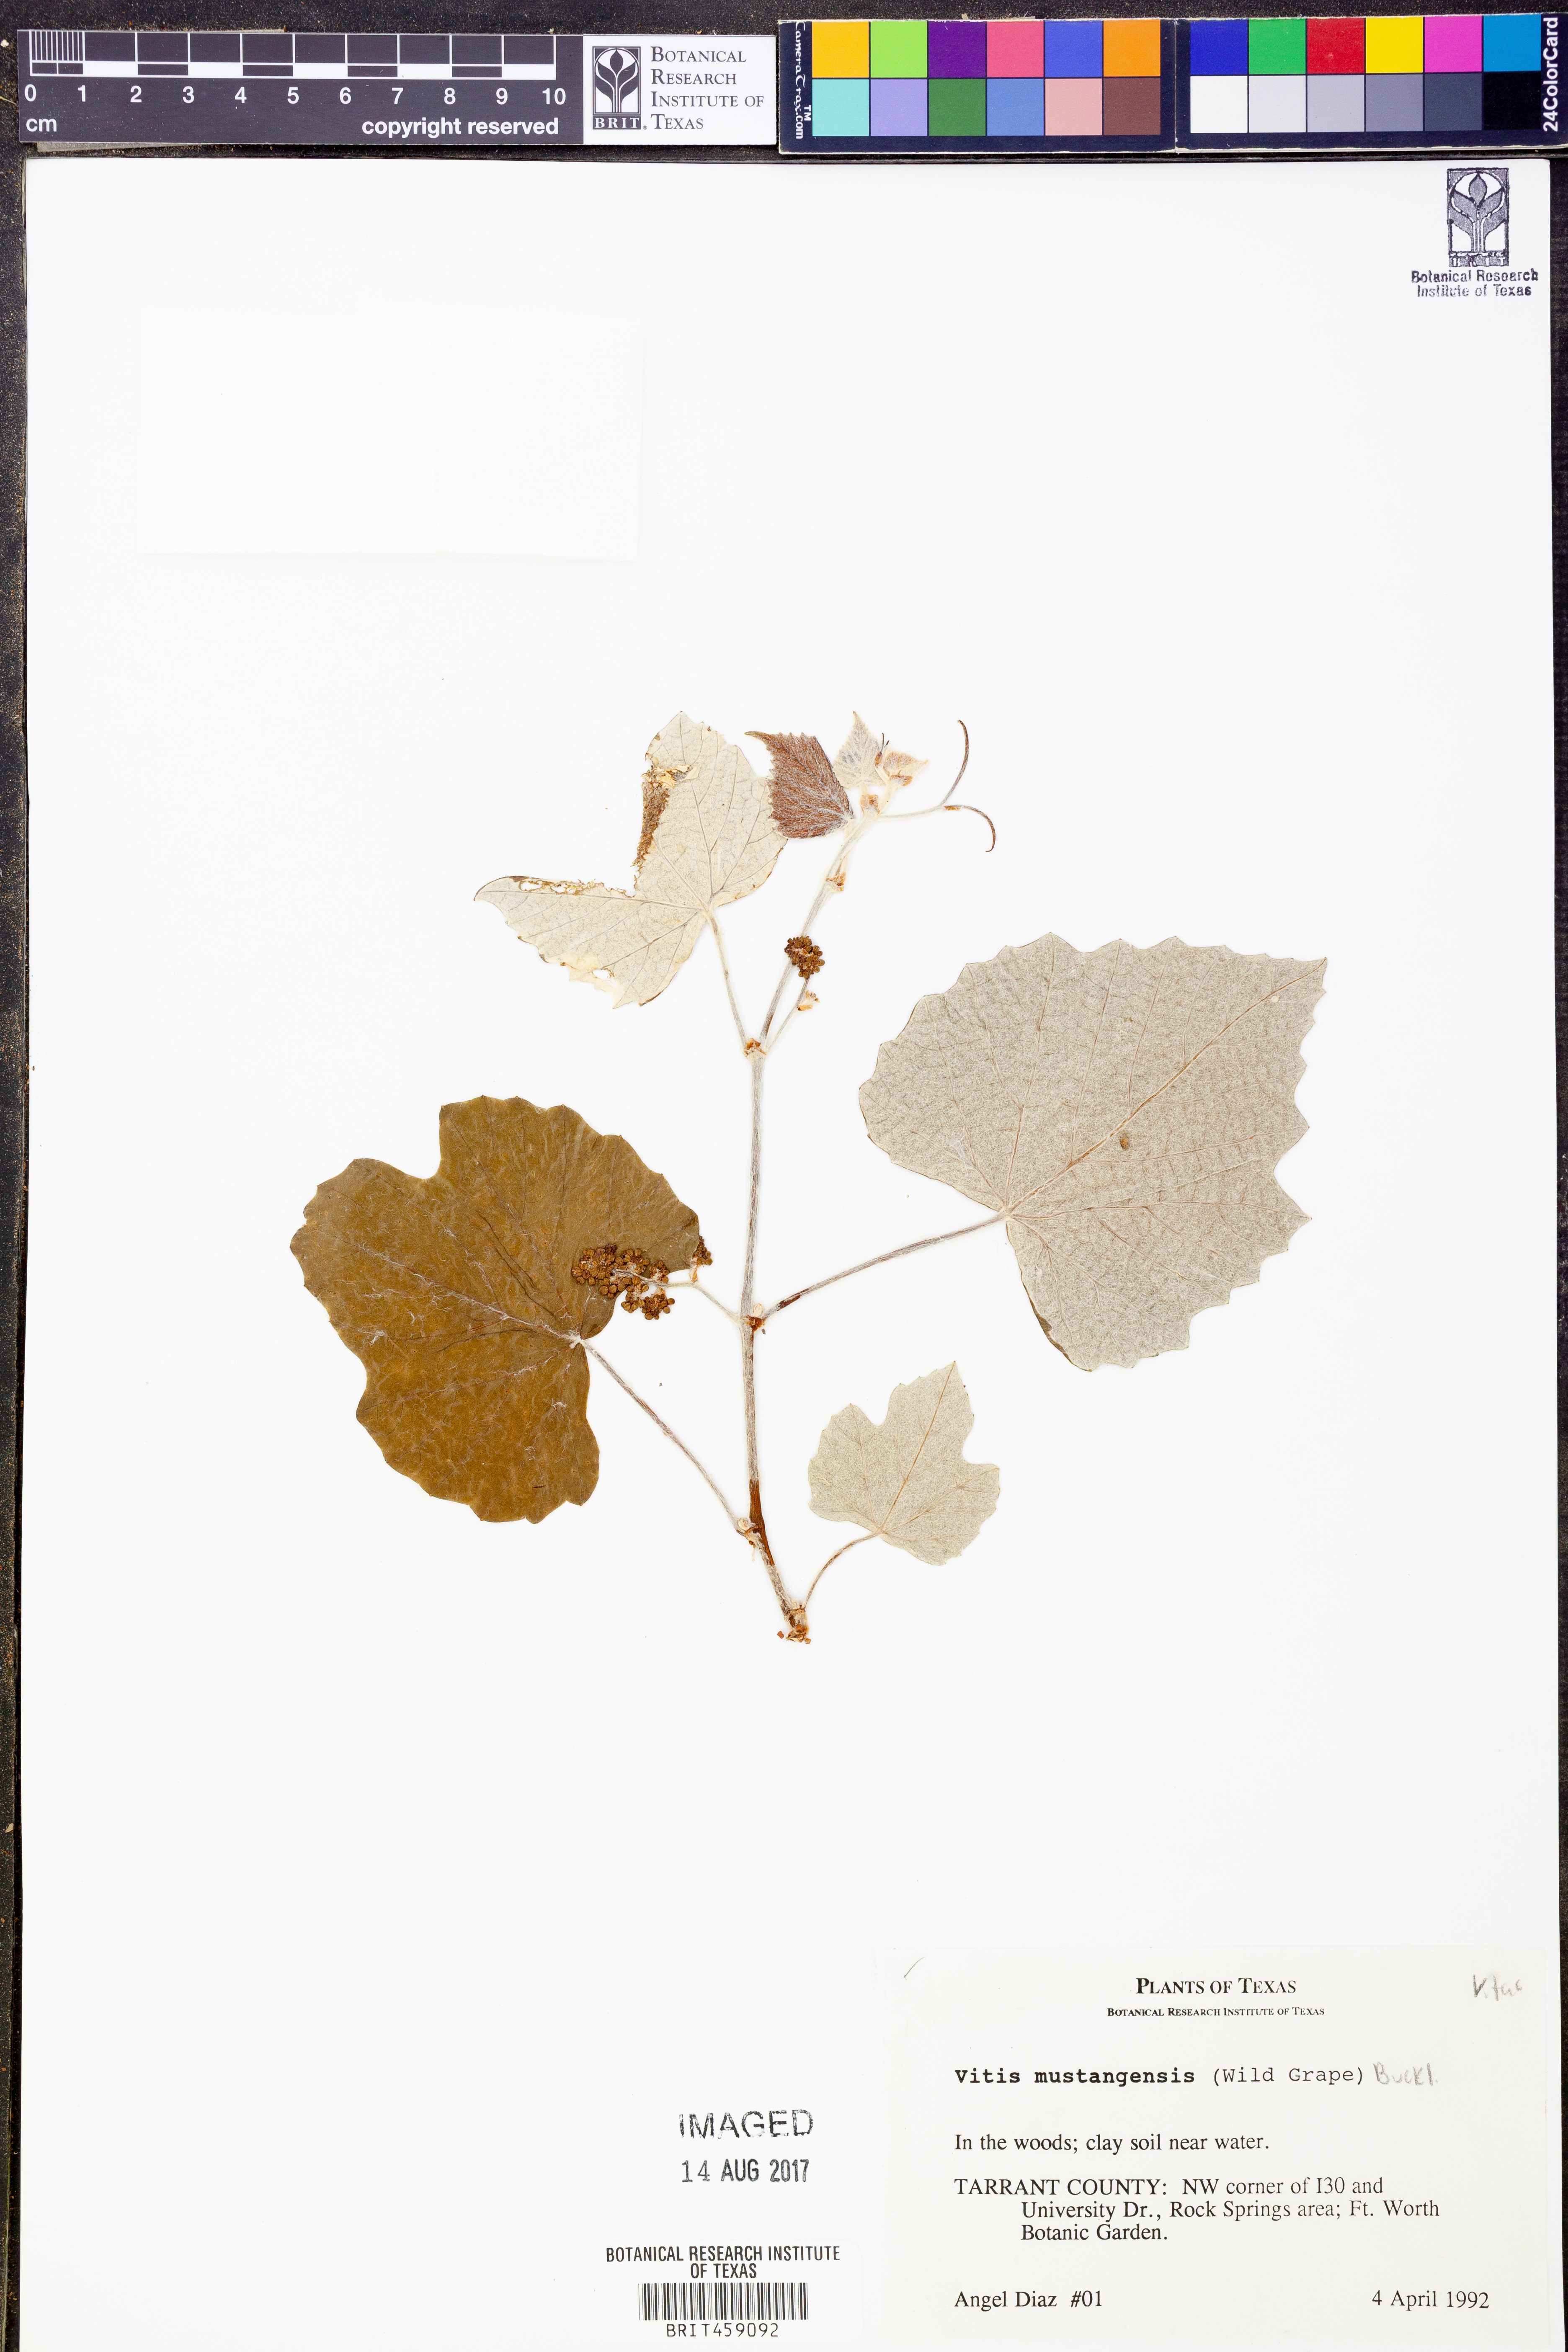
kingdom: Plantae
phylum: Tracheophyta
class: Magnoliopsida
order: Vitales
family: Vitaceae
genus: Vitis
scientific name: Vitis mustangensis
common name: Mustang grape
